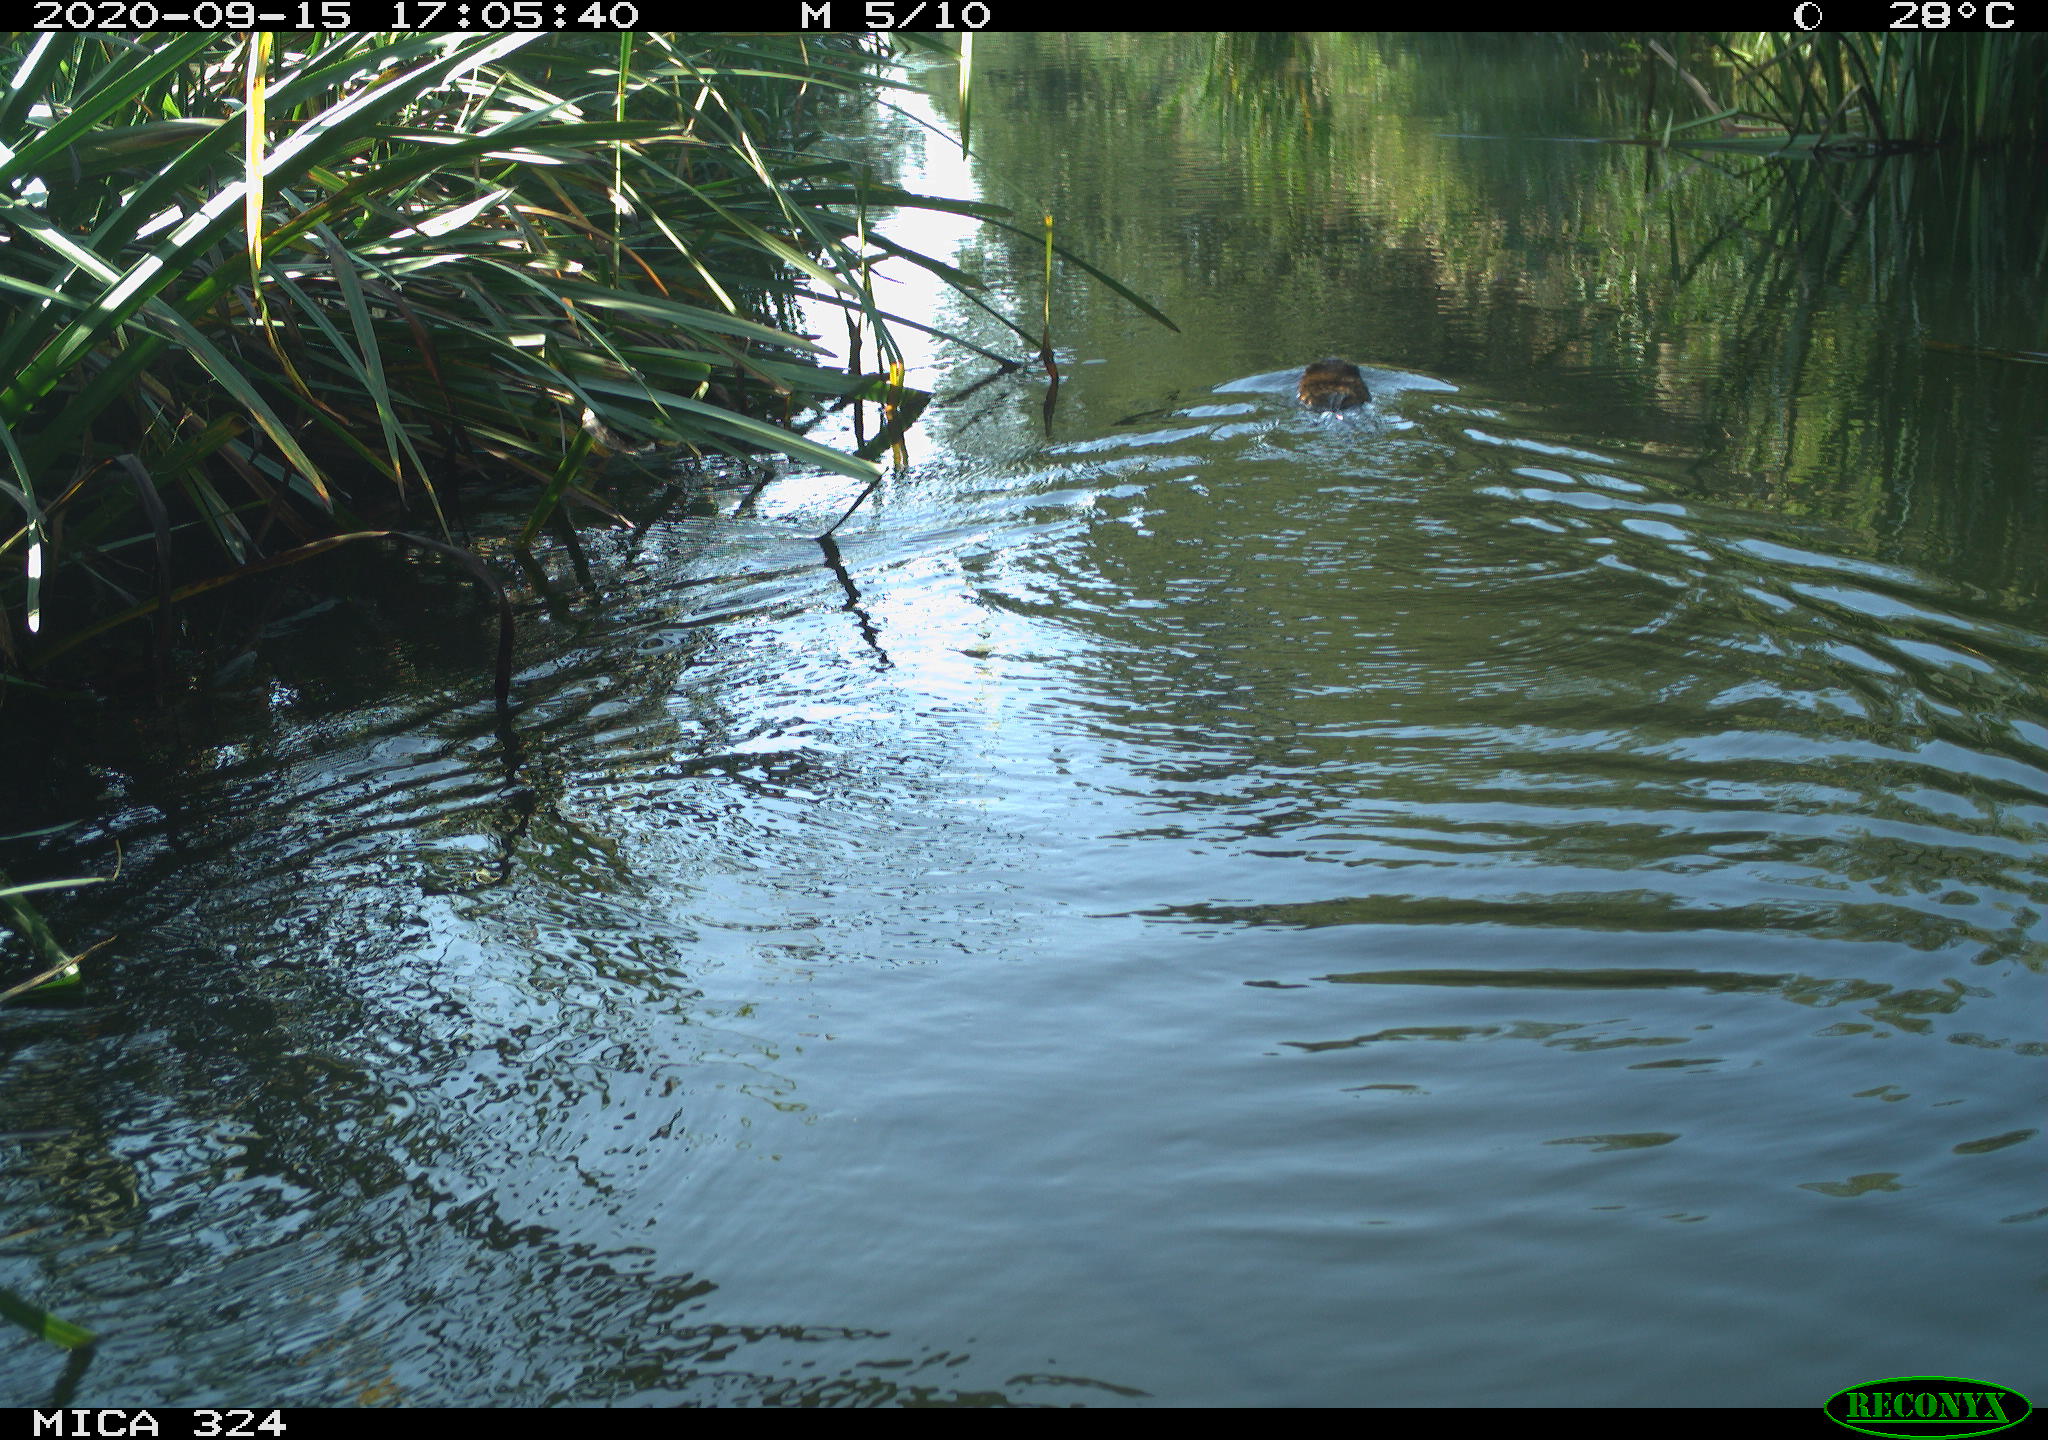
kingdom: Animalia
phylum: Chordata
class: Mammalia
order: Rodentia
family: Cricetidae
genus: Ondatra
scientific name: Ondatra zibethicus
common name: Muskrat
